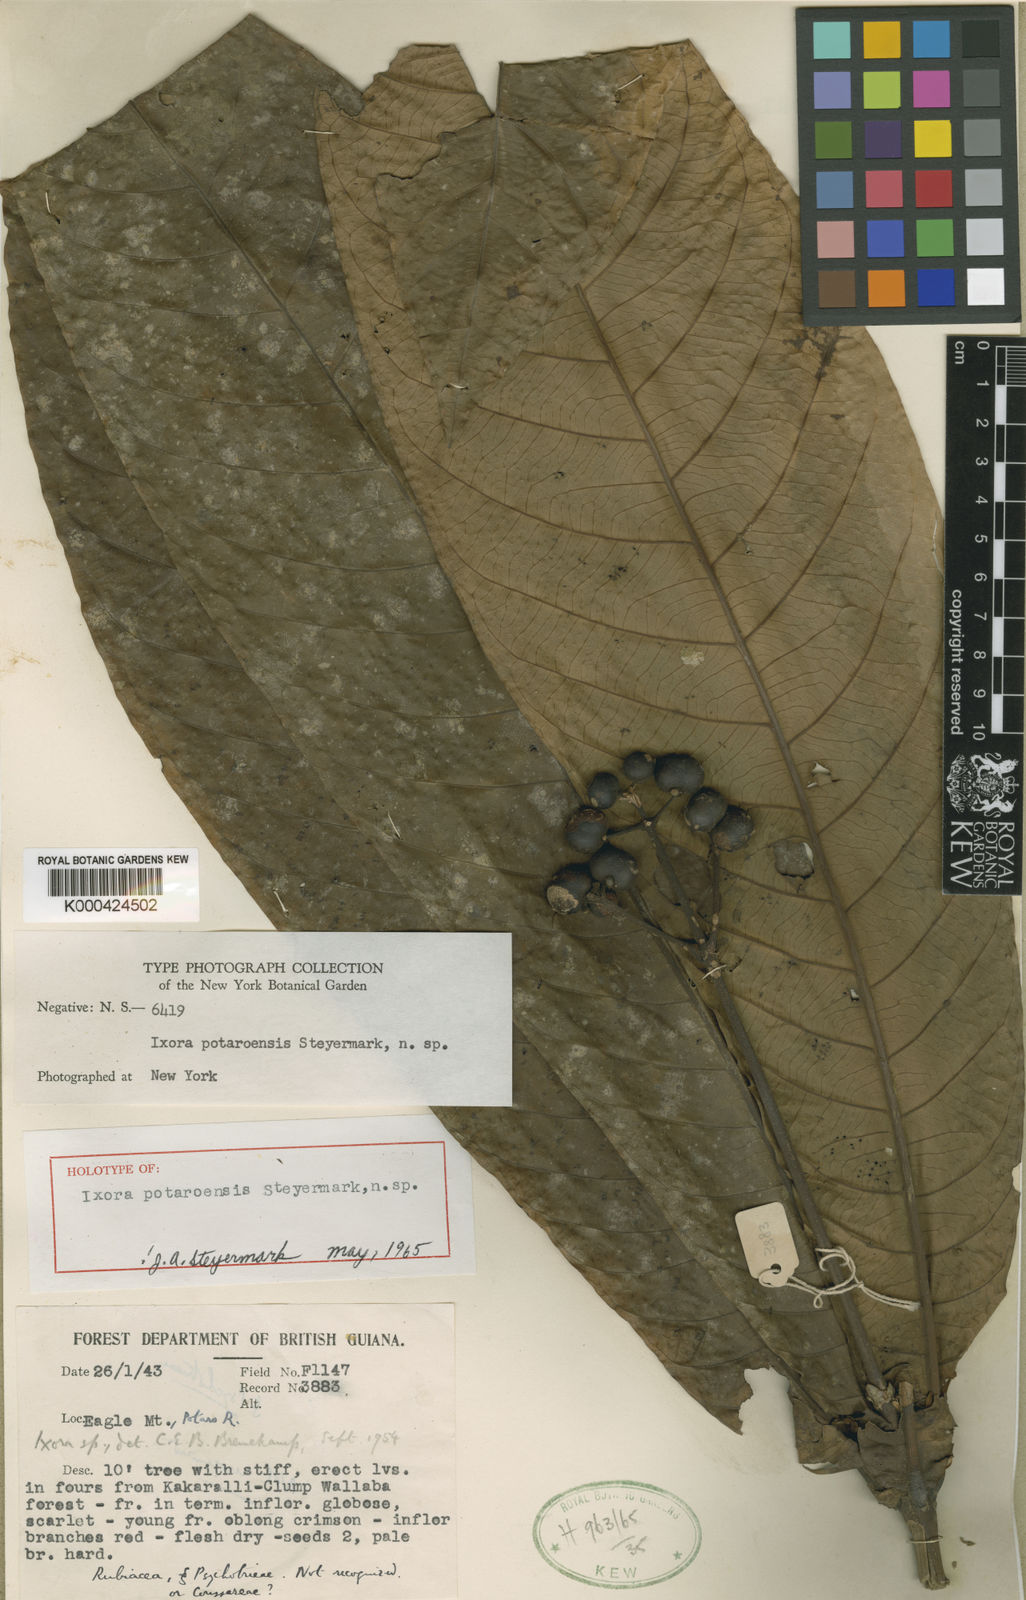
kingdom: Plantae
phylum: Tracheophyta
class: Magnoliopsida
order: Gentianales
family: Rubiaceae
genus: Ixora
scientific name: Ixora potaroensis
